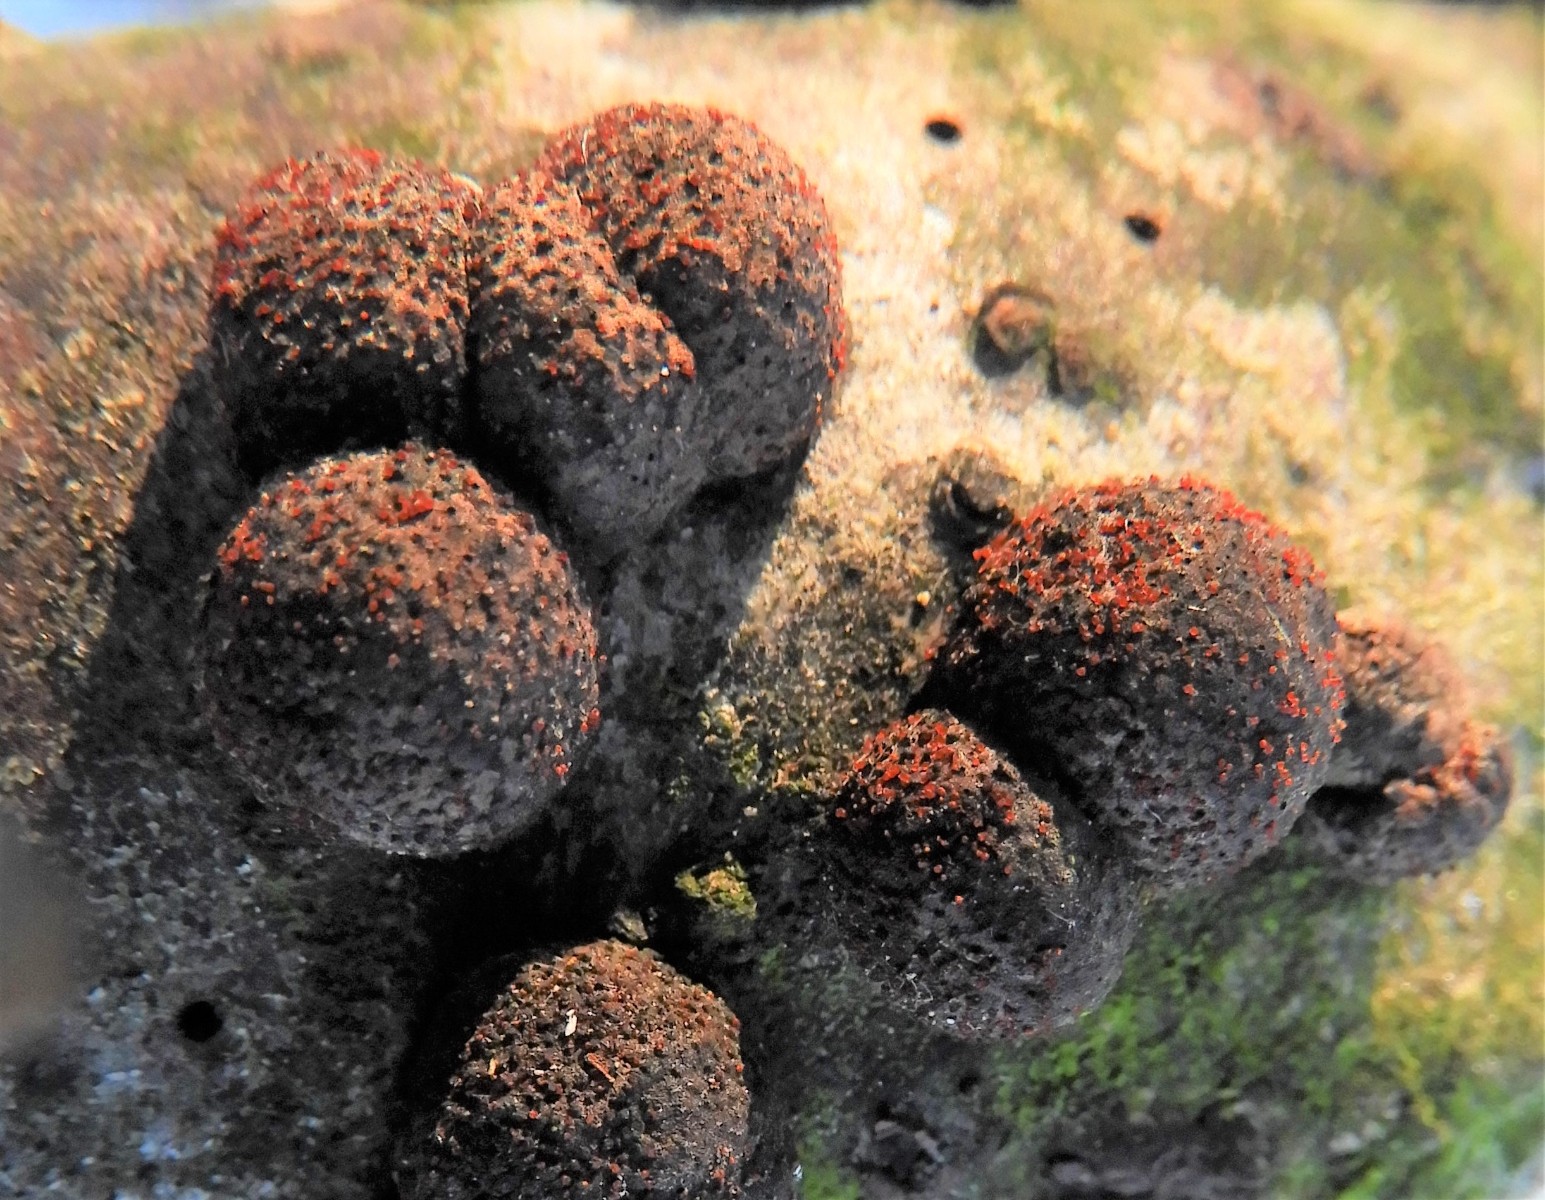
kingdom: Fungi
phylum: Ascomycota
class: Sordariomycetes
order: Hypocreales
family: Nectriaceae
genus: Cosmospora
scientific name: Cosmospora arxii
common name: kuljordbær-cinnobersvamp
